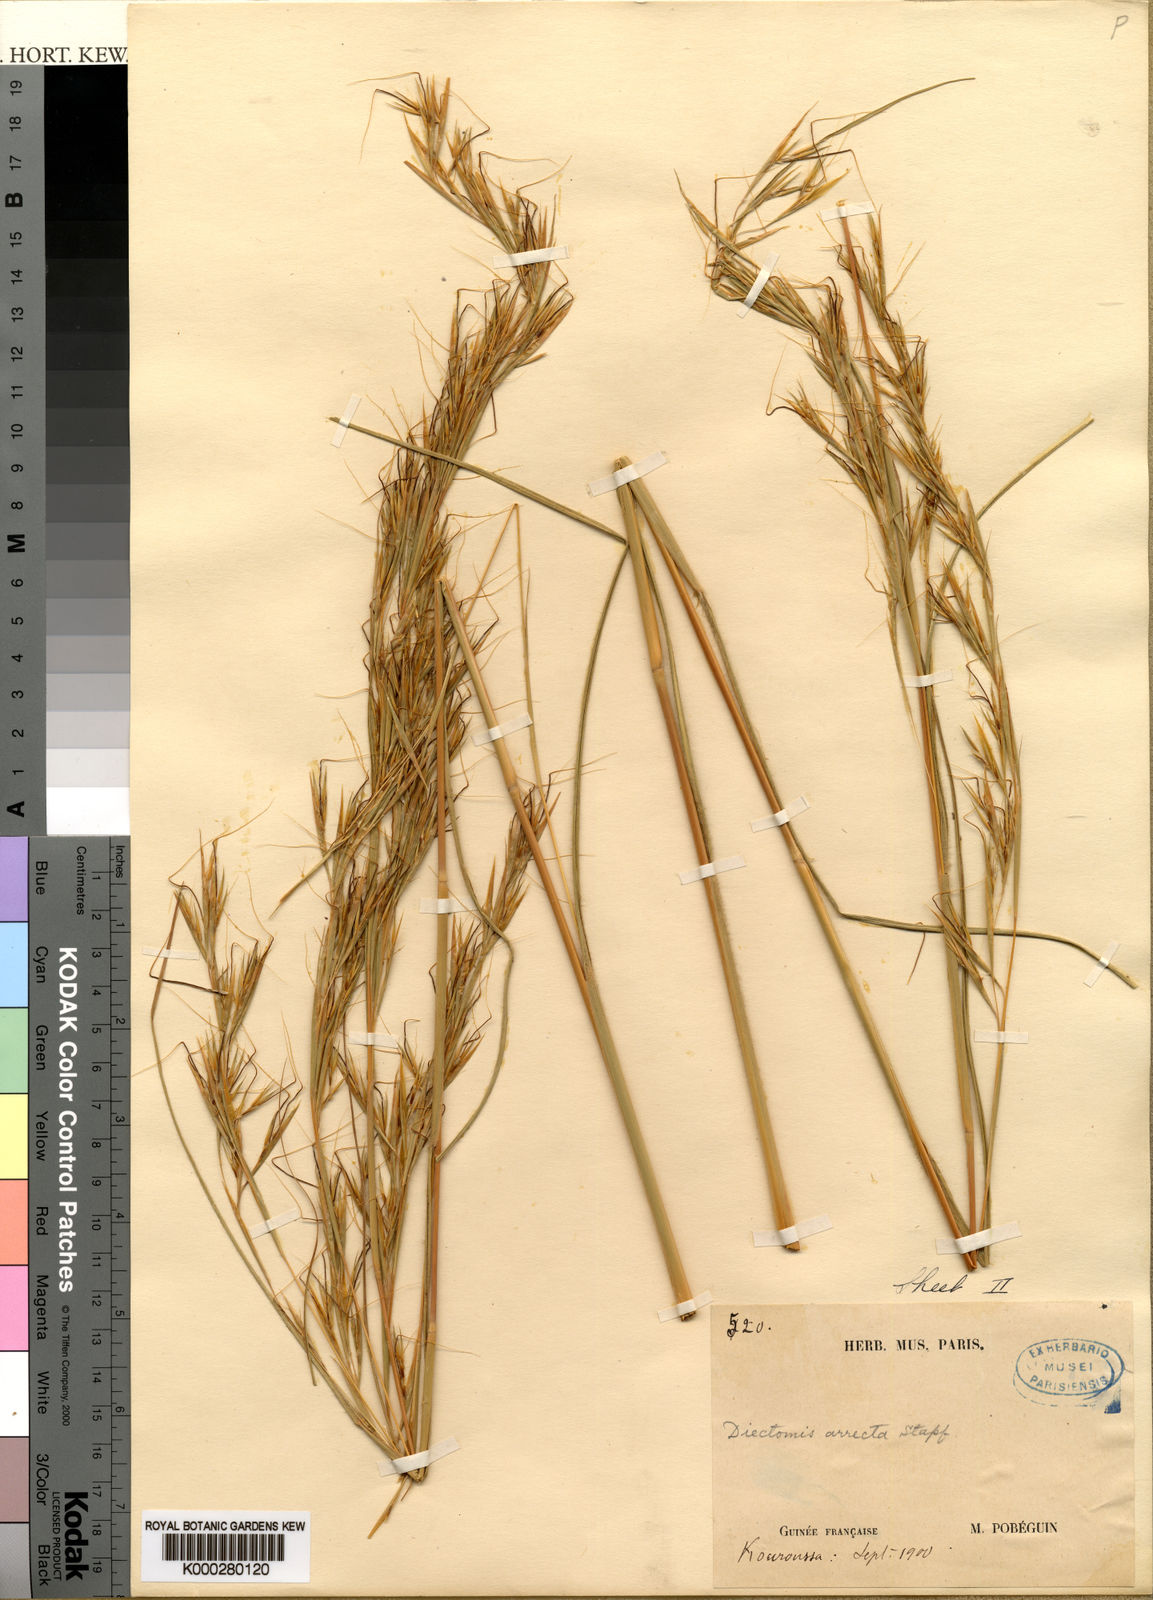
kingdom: Plantae
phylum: Tracheophyta
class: Liliopsida
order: Poales
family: Poaceae
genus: Anadelphia
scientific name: Anadelphia afzeliana
